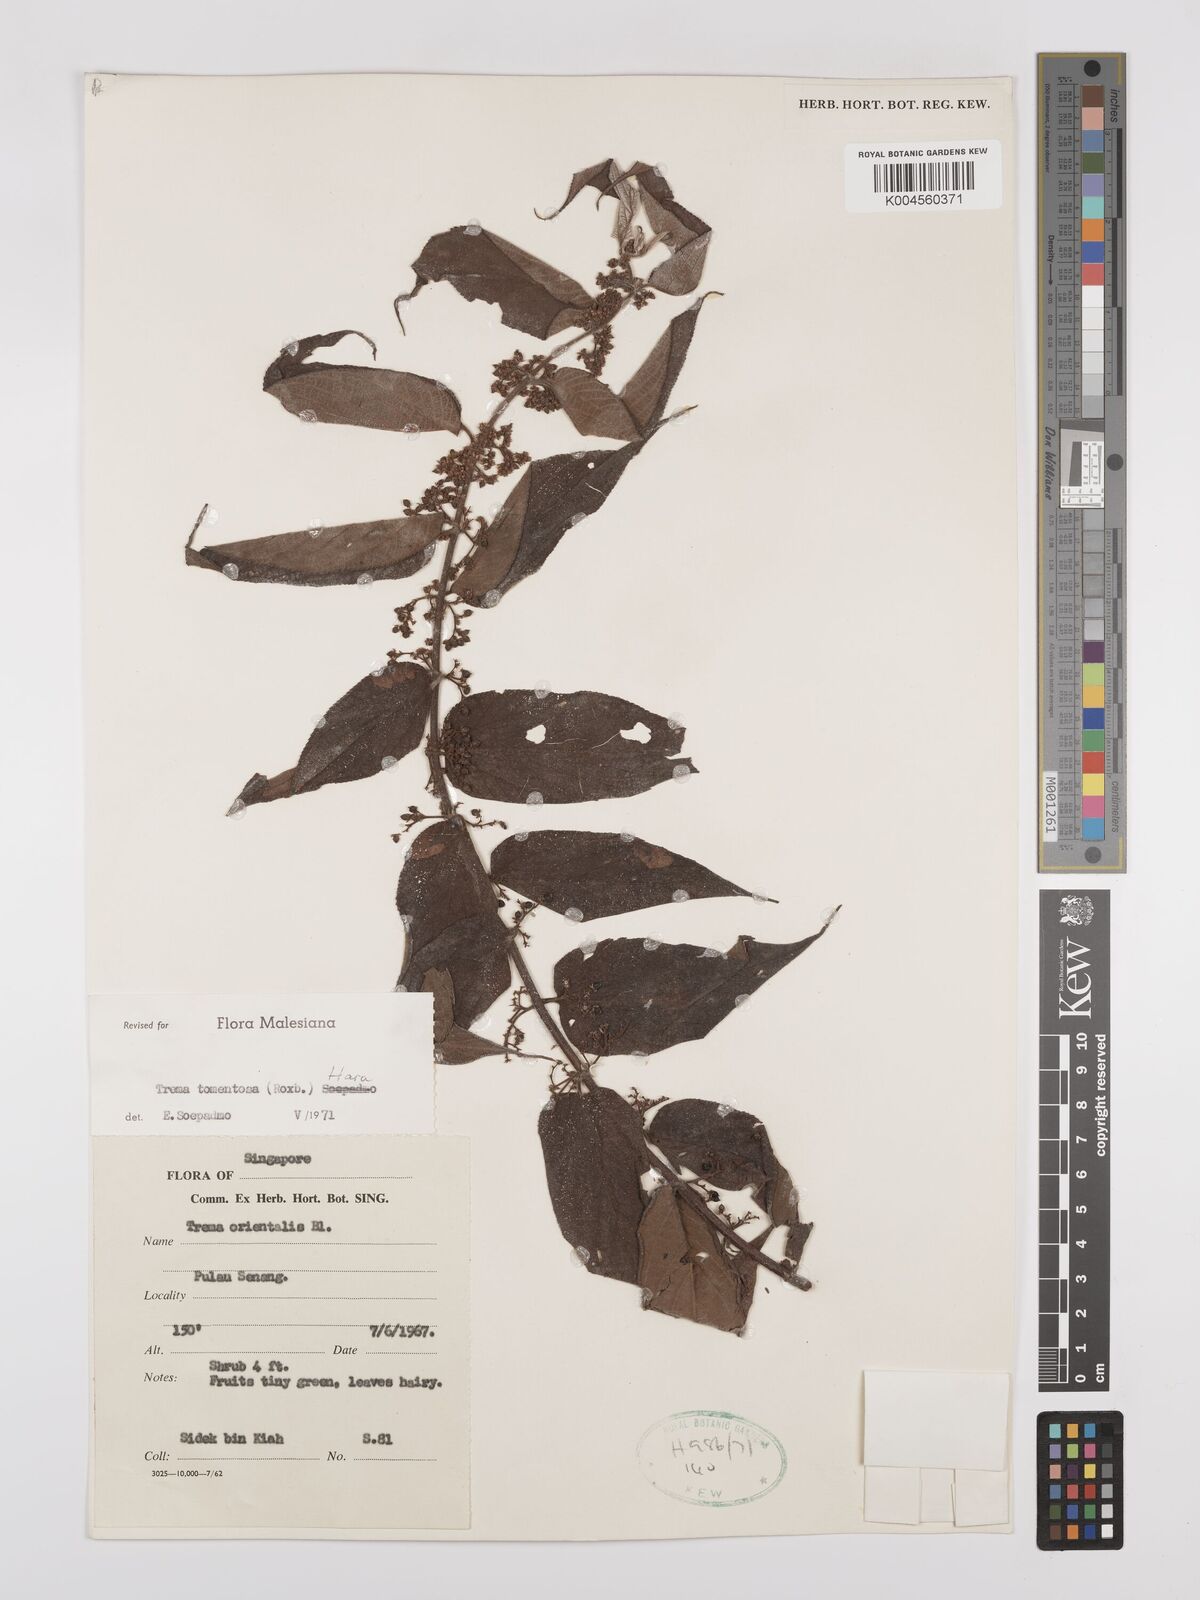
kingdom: Plantae
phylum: Tracheophyta
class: Magnoliopsida
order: Rosales
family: Cannabaceae
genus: Trema
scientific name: Trema tomentosum
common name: Peach-leaf-poisonbush
